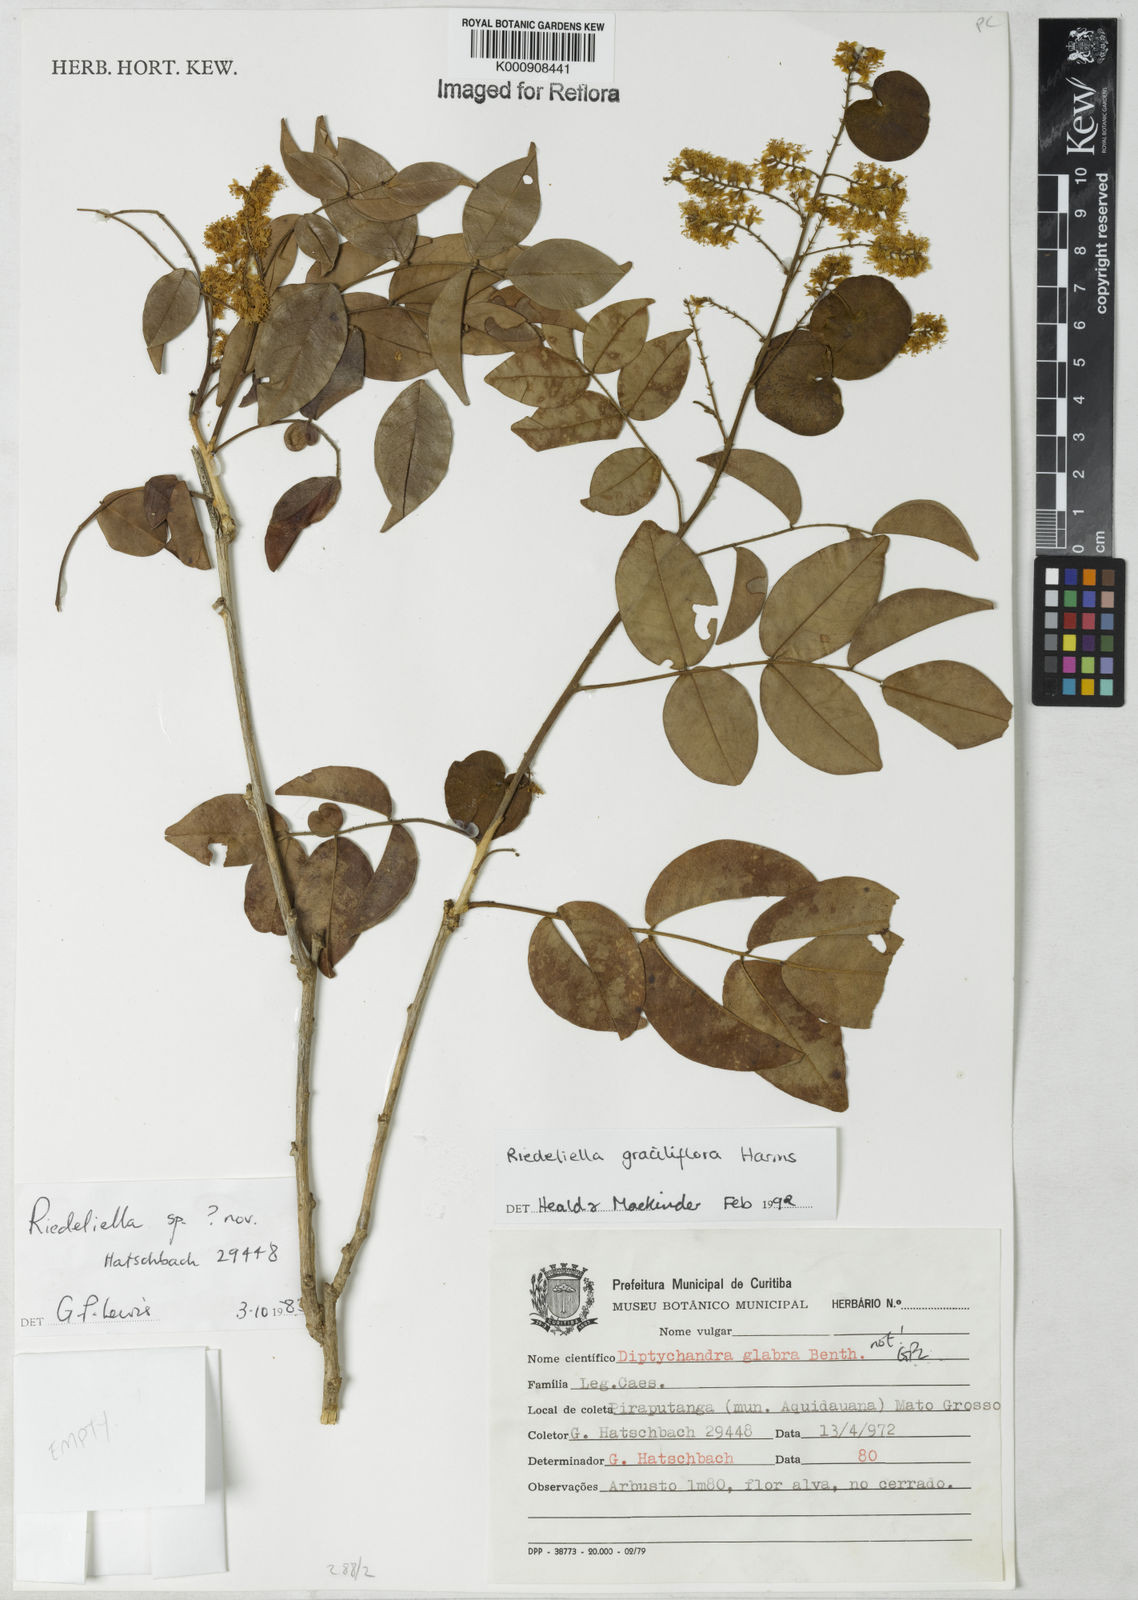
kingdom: Plantae
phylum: Tracheophyta
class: Magnoliopsida
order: Fabales
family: Fabaceae
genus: Riedeliella
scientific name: Riedeliella graciliflora
